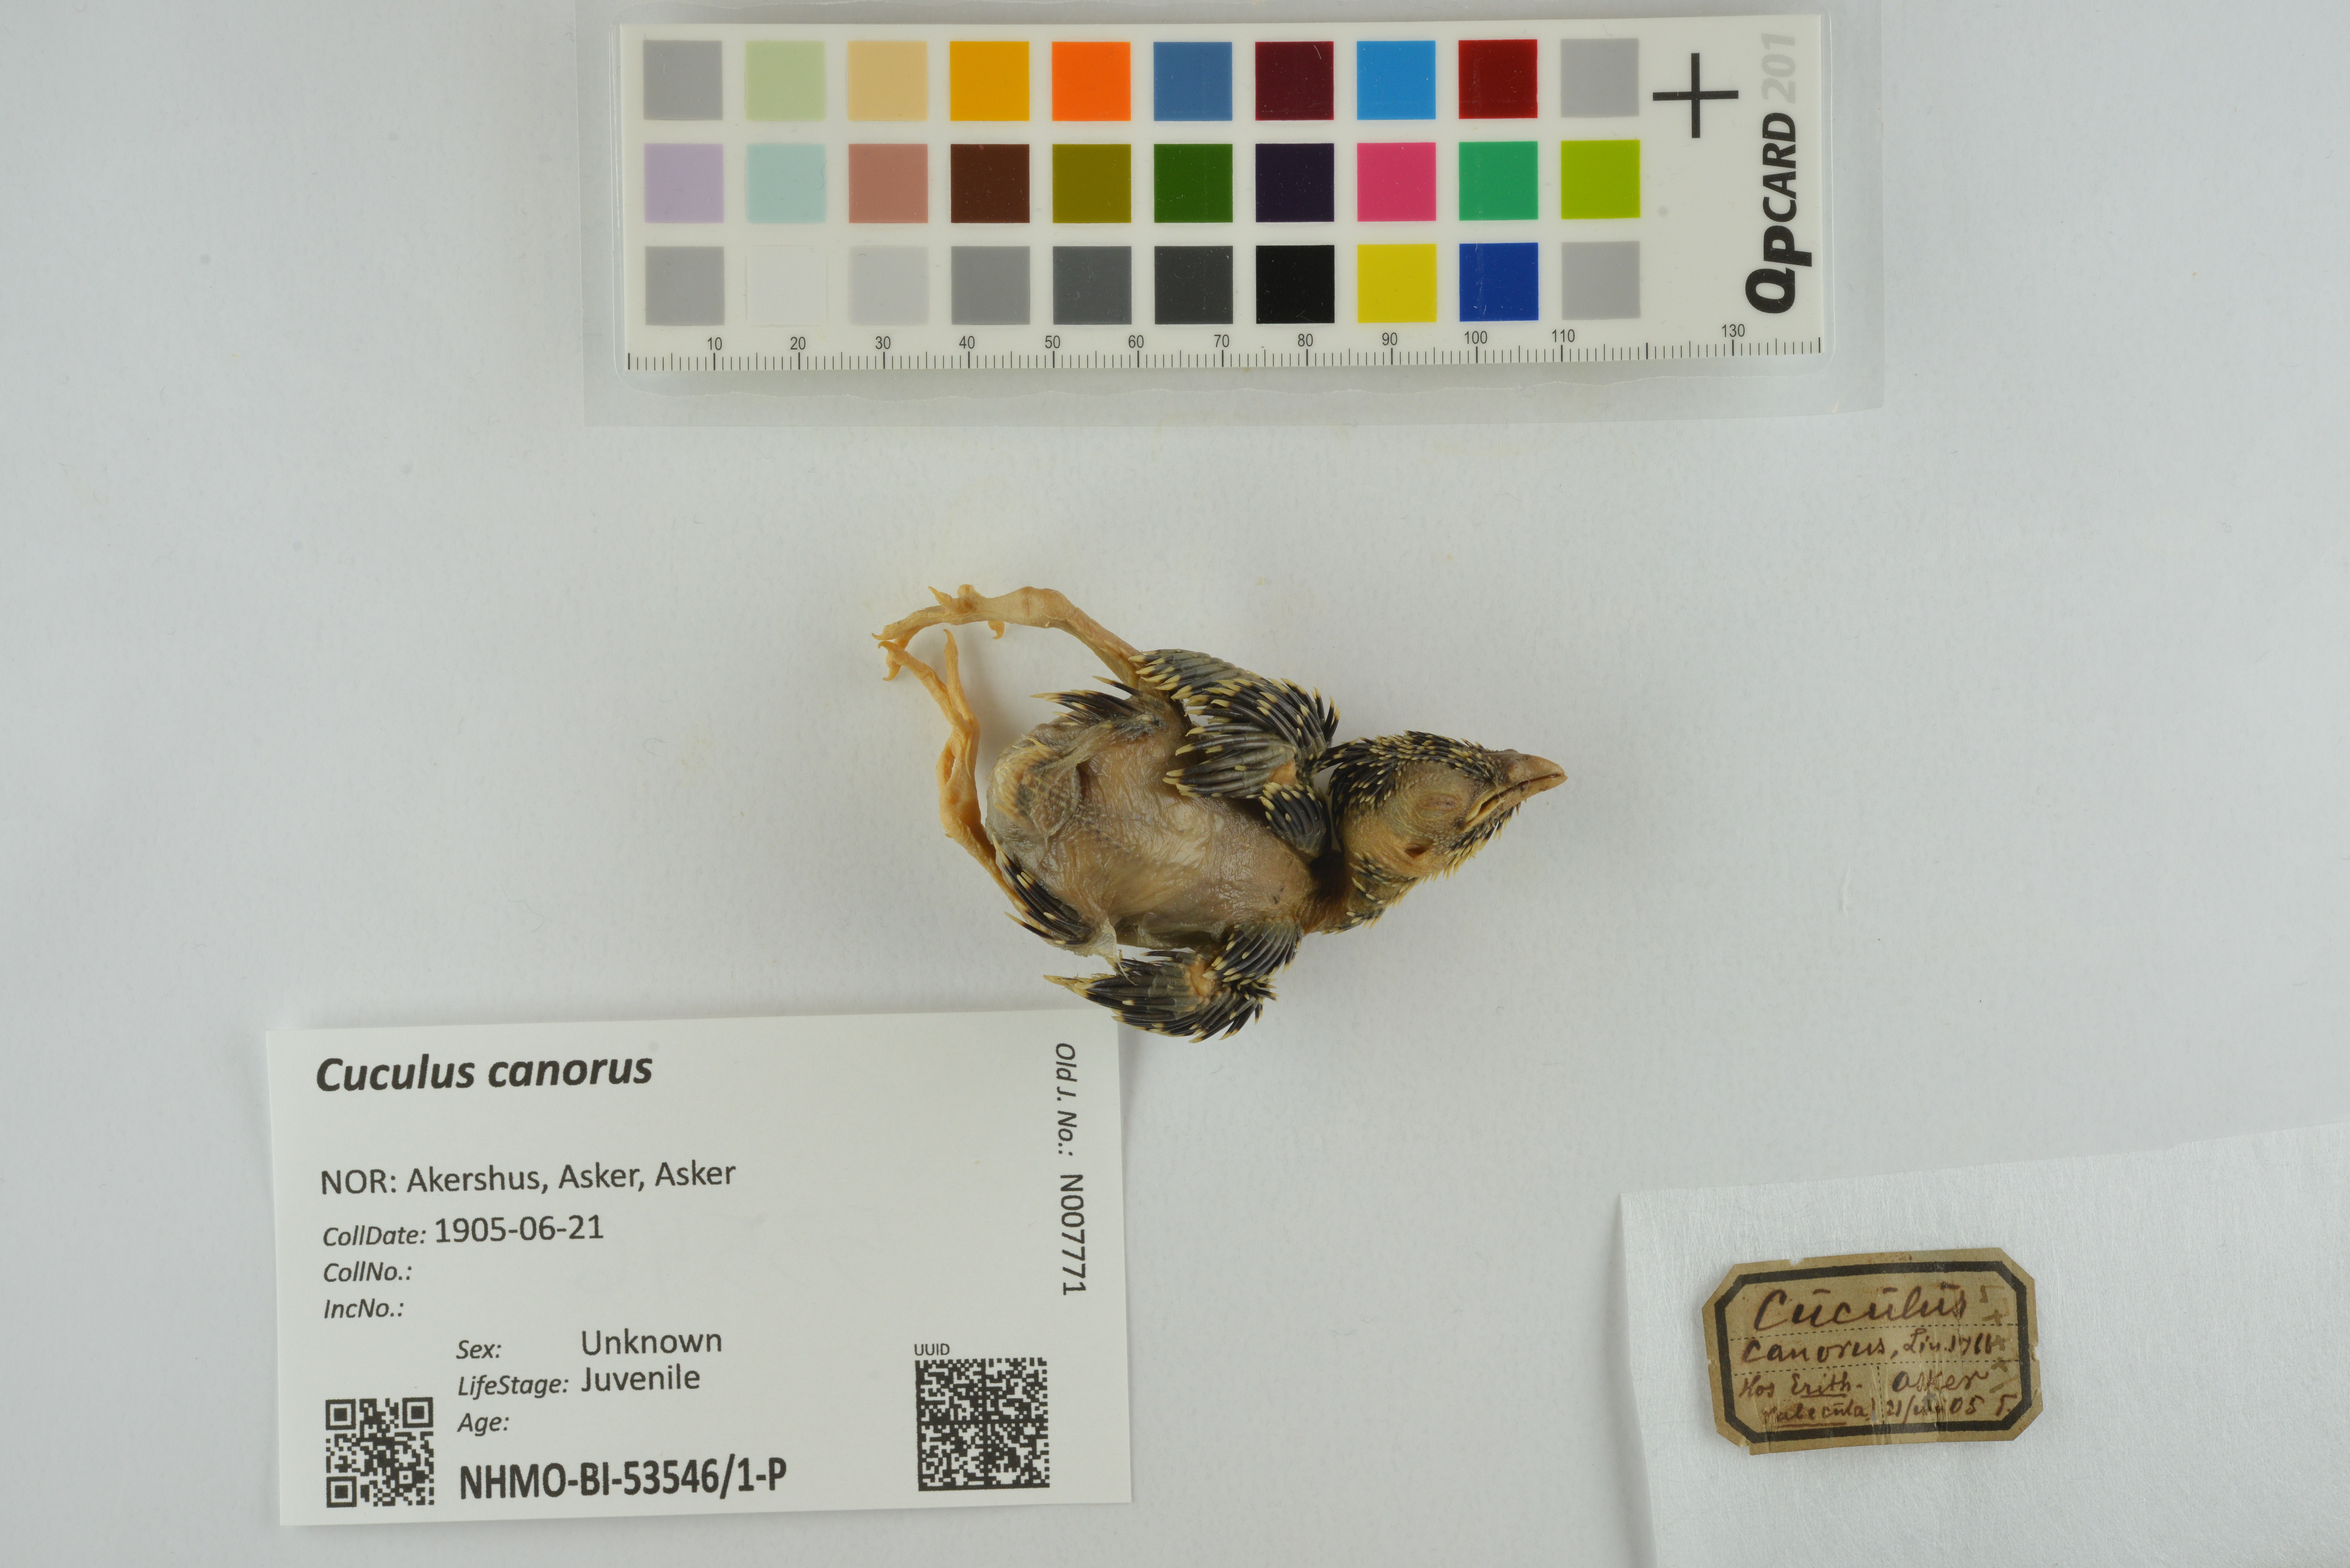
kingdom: Animalia
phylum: Chordata
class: Aves
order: Cuculiformes
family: Cuculidae
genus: Cuculus
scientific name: Cuculus canorus
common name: Common cuckoo
